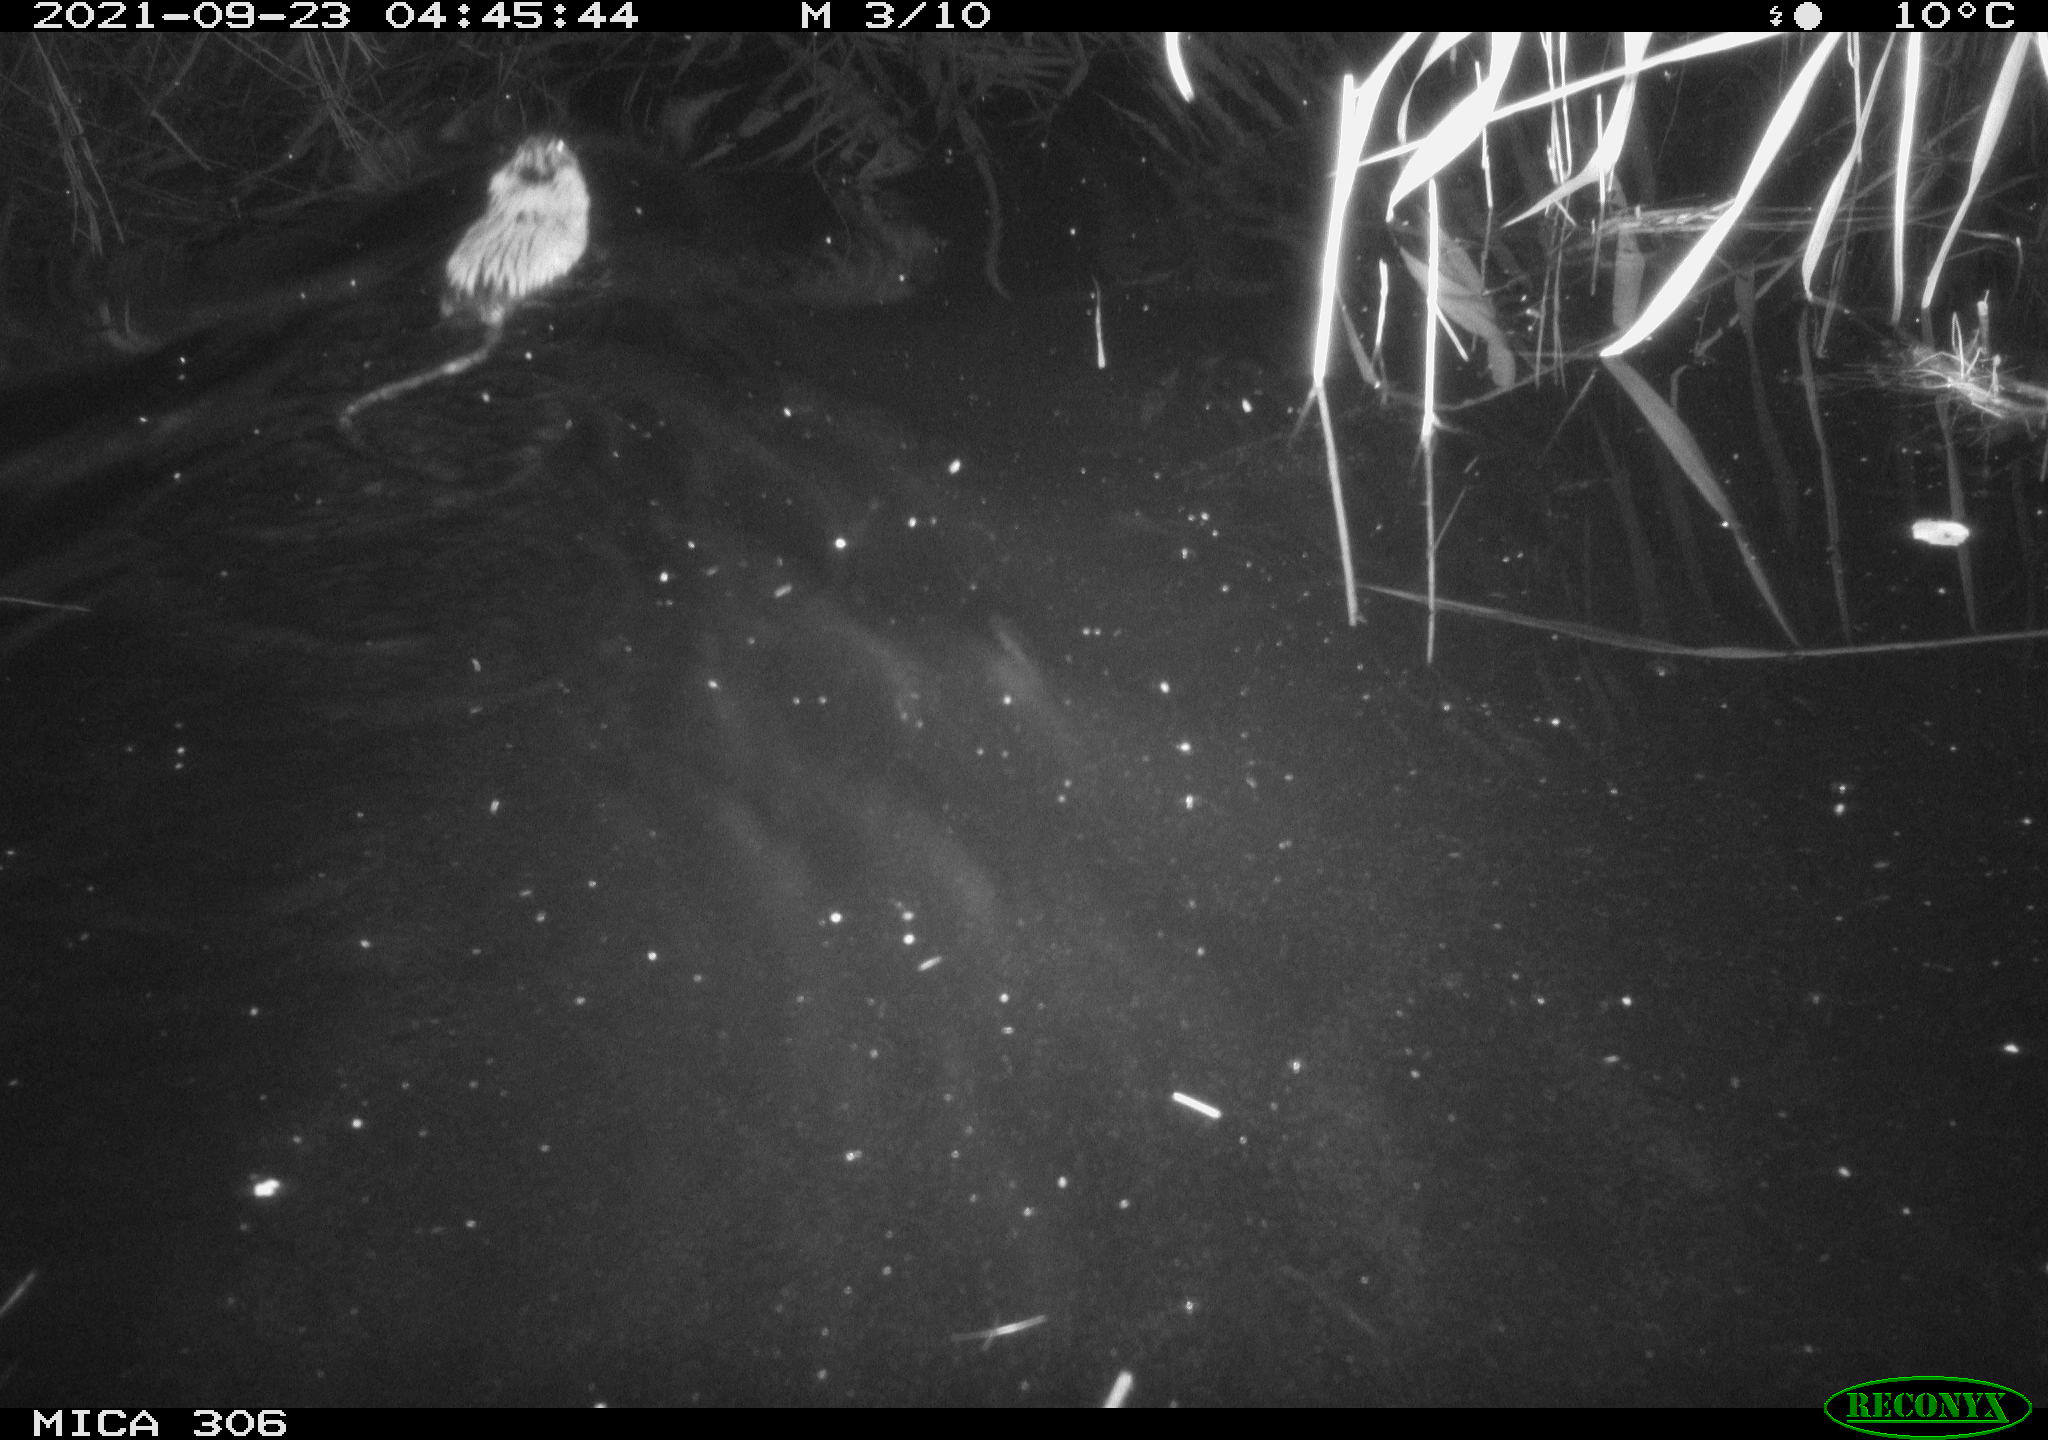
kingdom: Animalia
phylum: Chordata
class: Mammalia
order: Rodentia
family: Cricetidae
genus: Ondatra
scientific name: Ondatra zibethicus
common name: Muskrat
